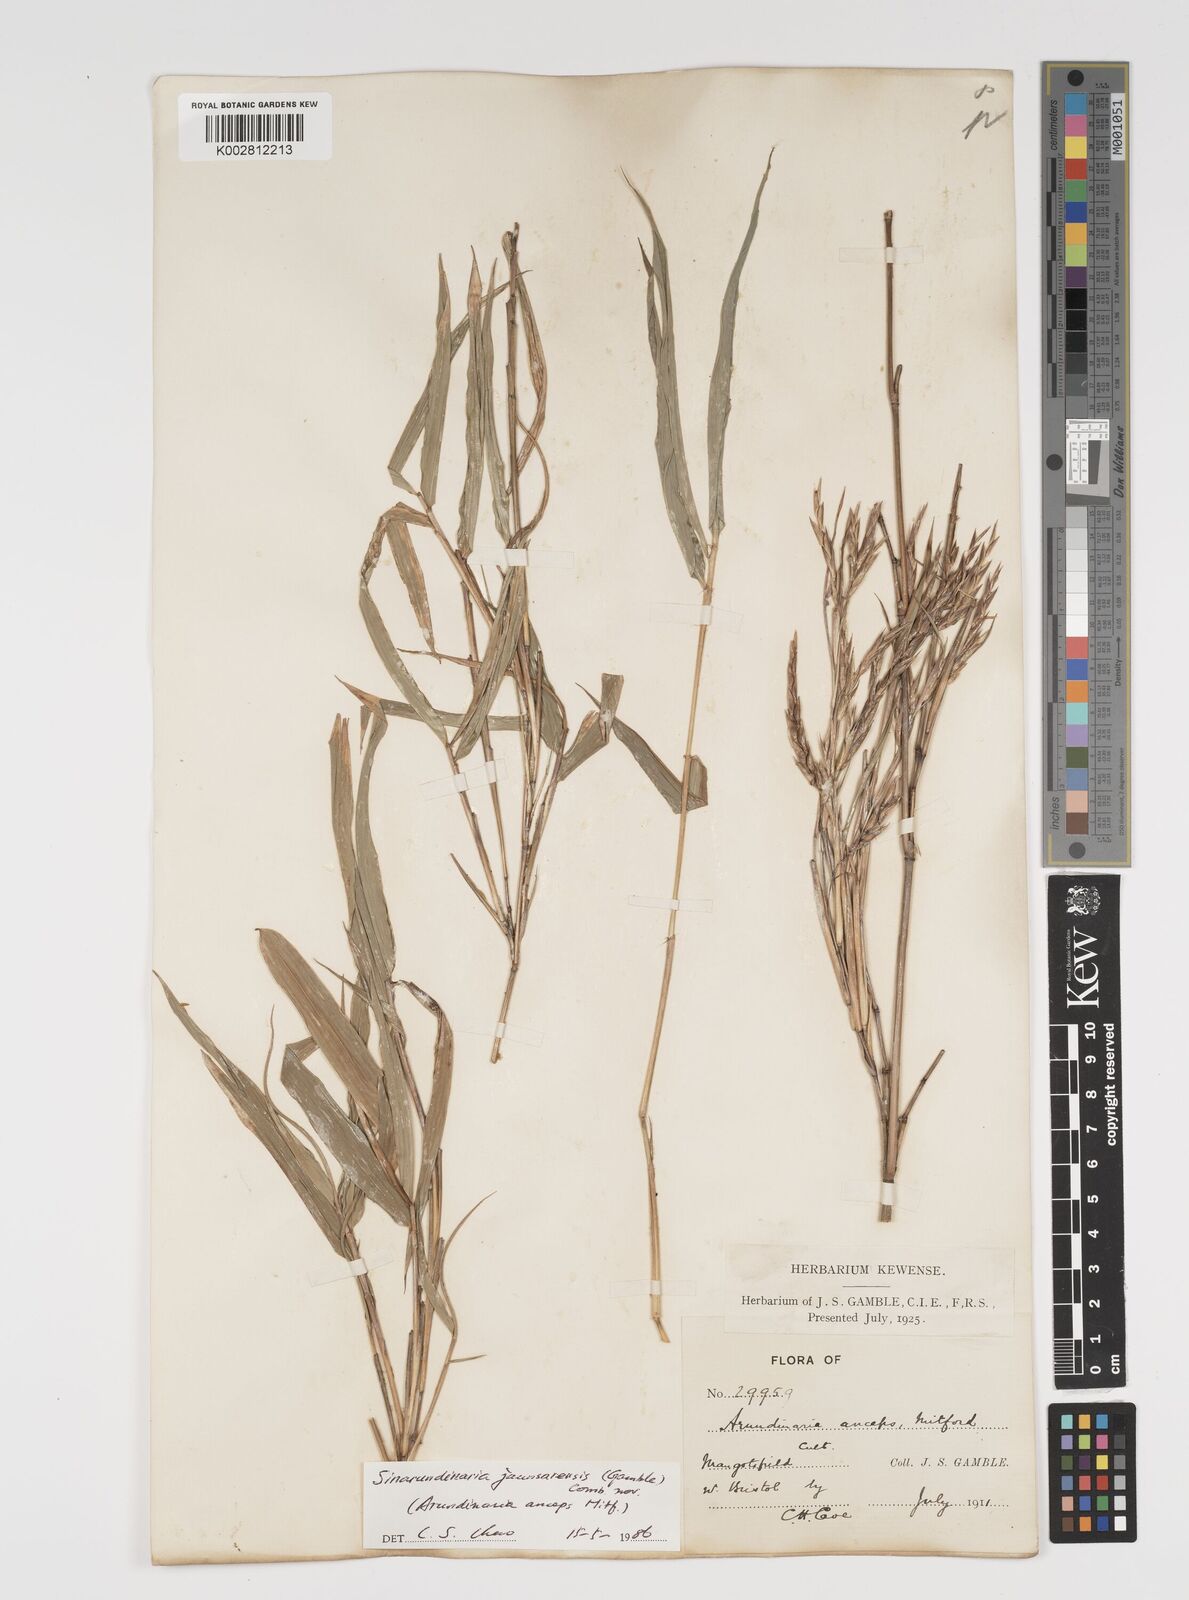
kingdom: Plantae
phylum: Tracheophyta
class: Liliopsida
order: Poales
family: Poaceae
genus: Yushania
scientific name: Yushania anceps
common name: Indian fountain-bamboo
